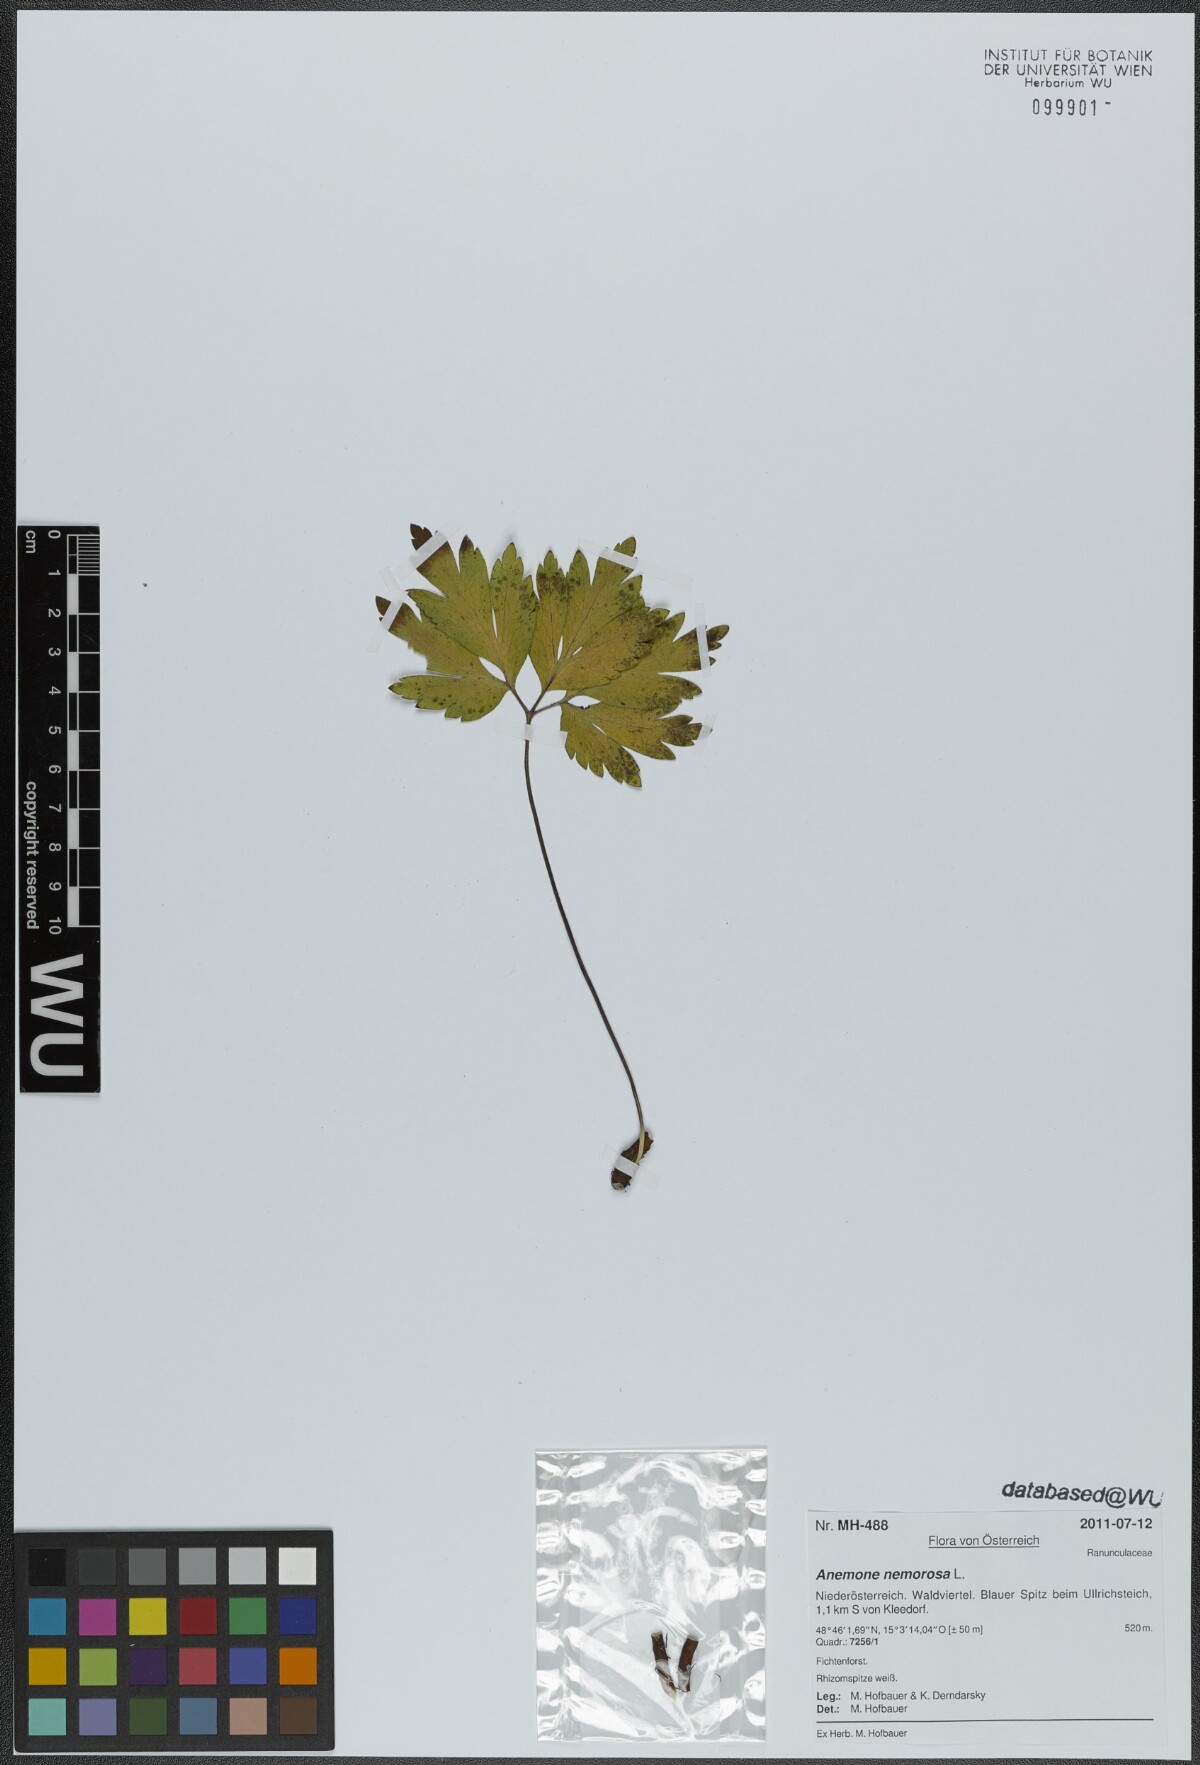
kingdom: Plantae
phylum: Tracheophyta
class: Magnoliopsida
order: Ranunculales
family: Ranunculaceae
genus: Anemone
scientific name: Anemone nemorosa
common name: Wood anemone
